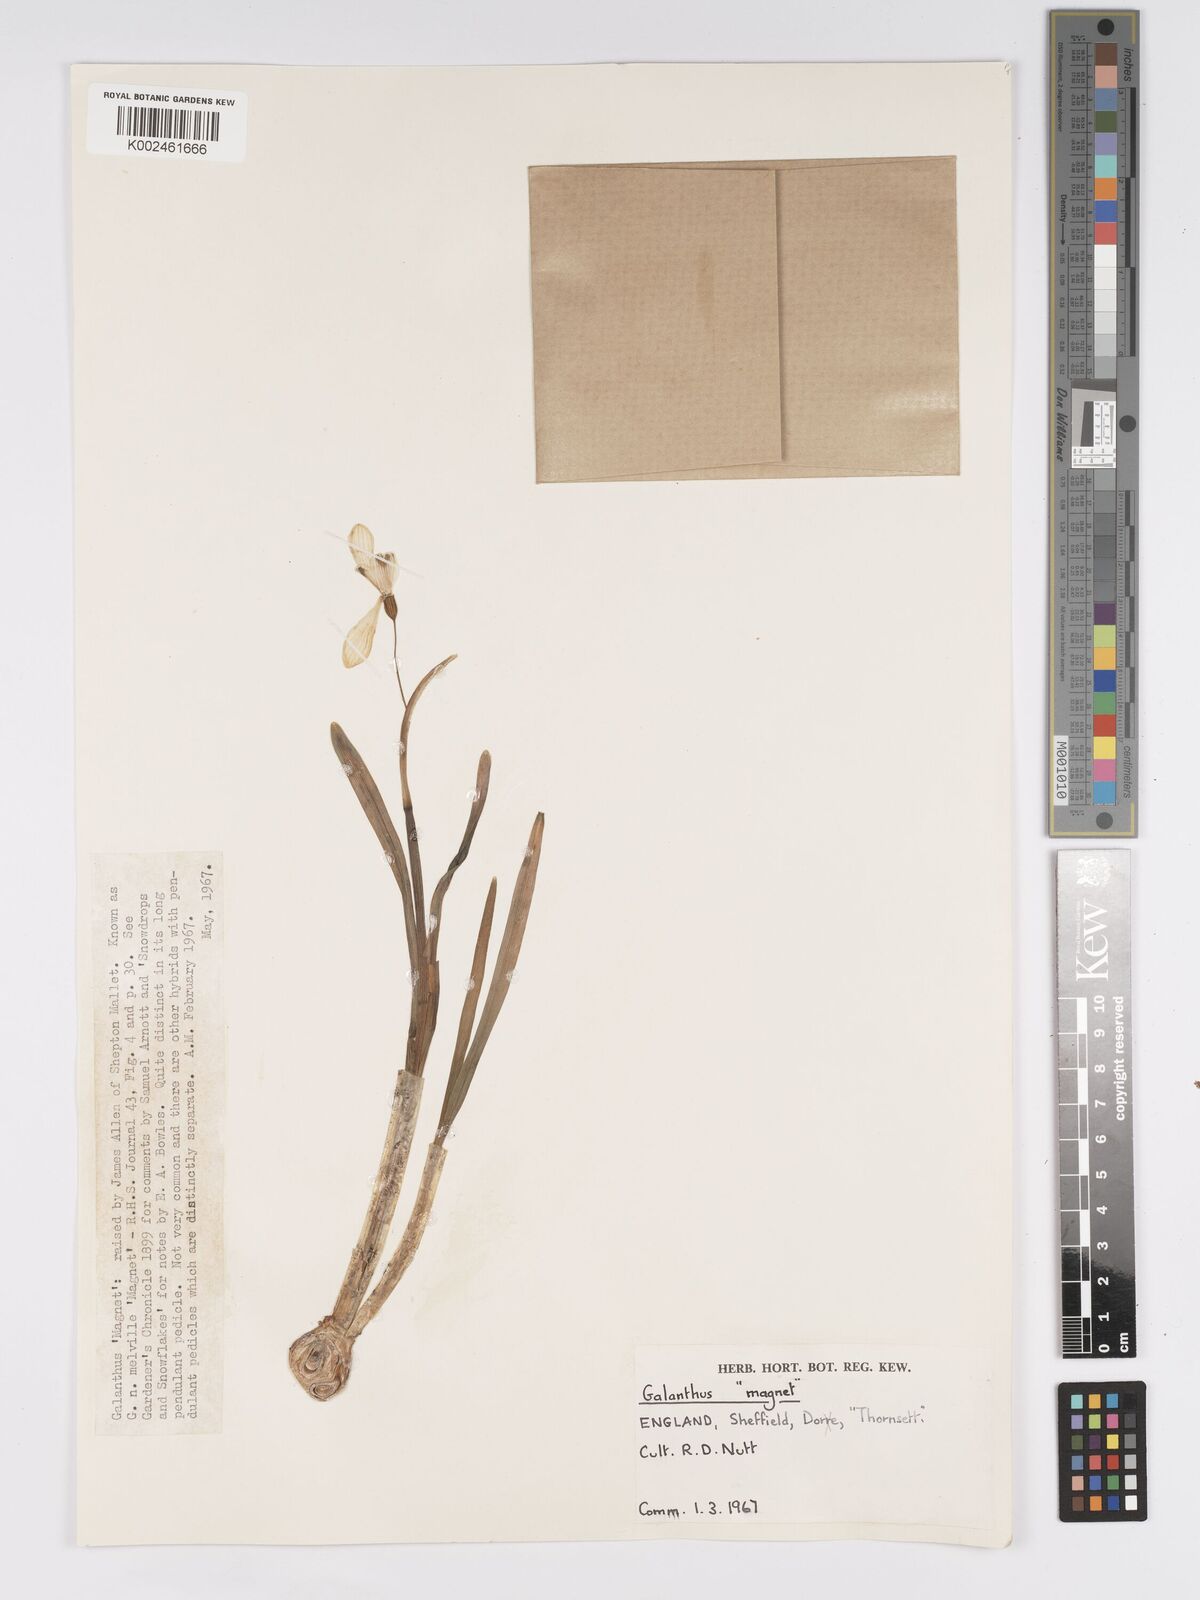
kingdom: Plantae
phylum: Tracheophyta
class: Liliopsida
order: Asparagales
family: Amaryllidaceae
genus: Galanthus
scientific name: Galanthus
